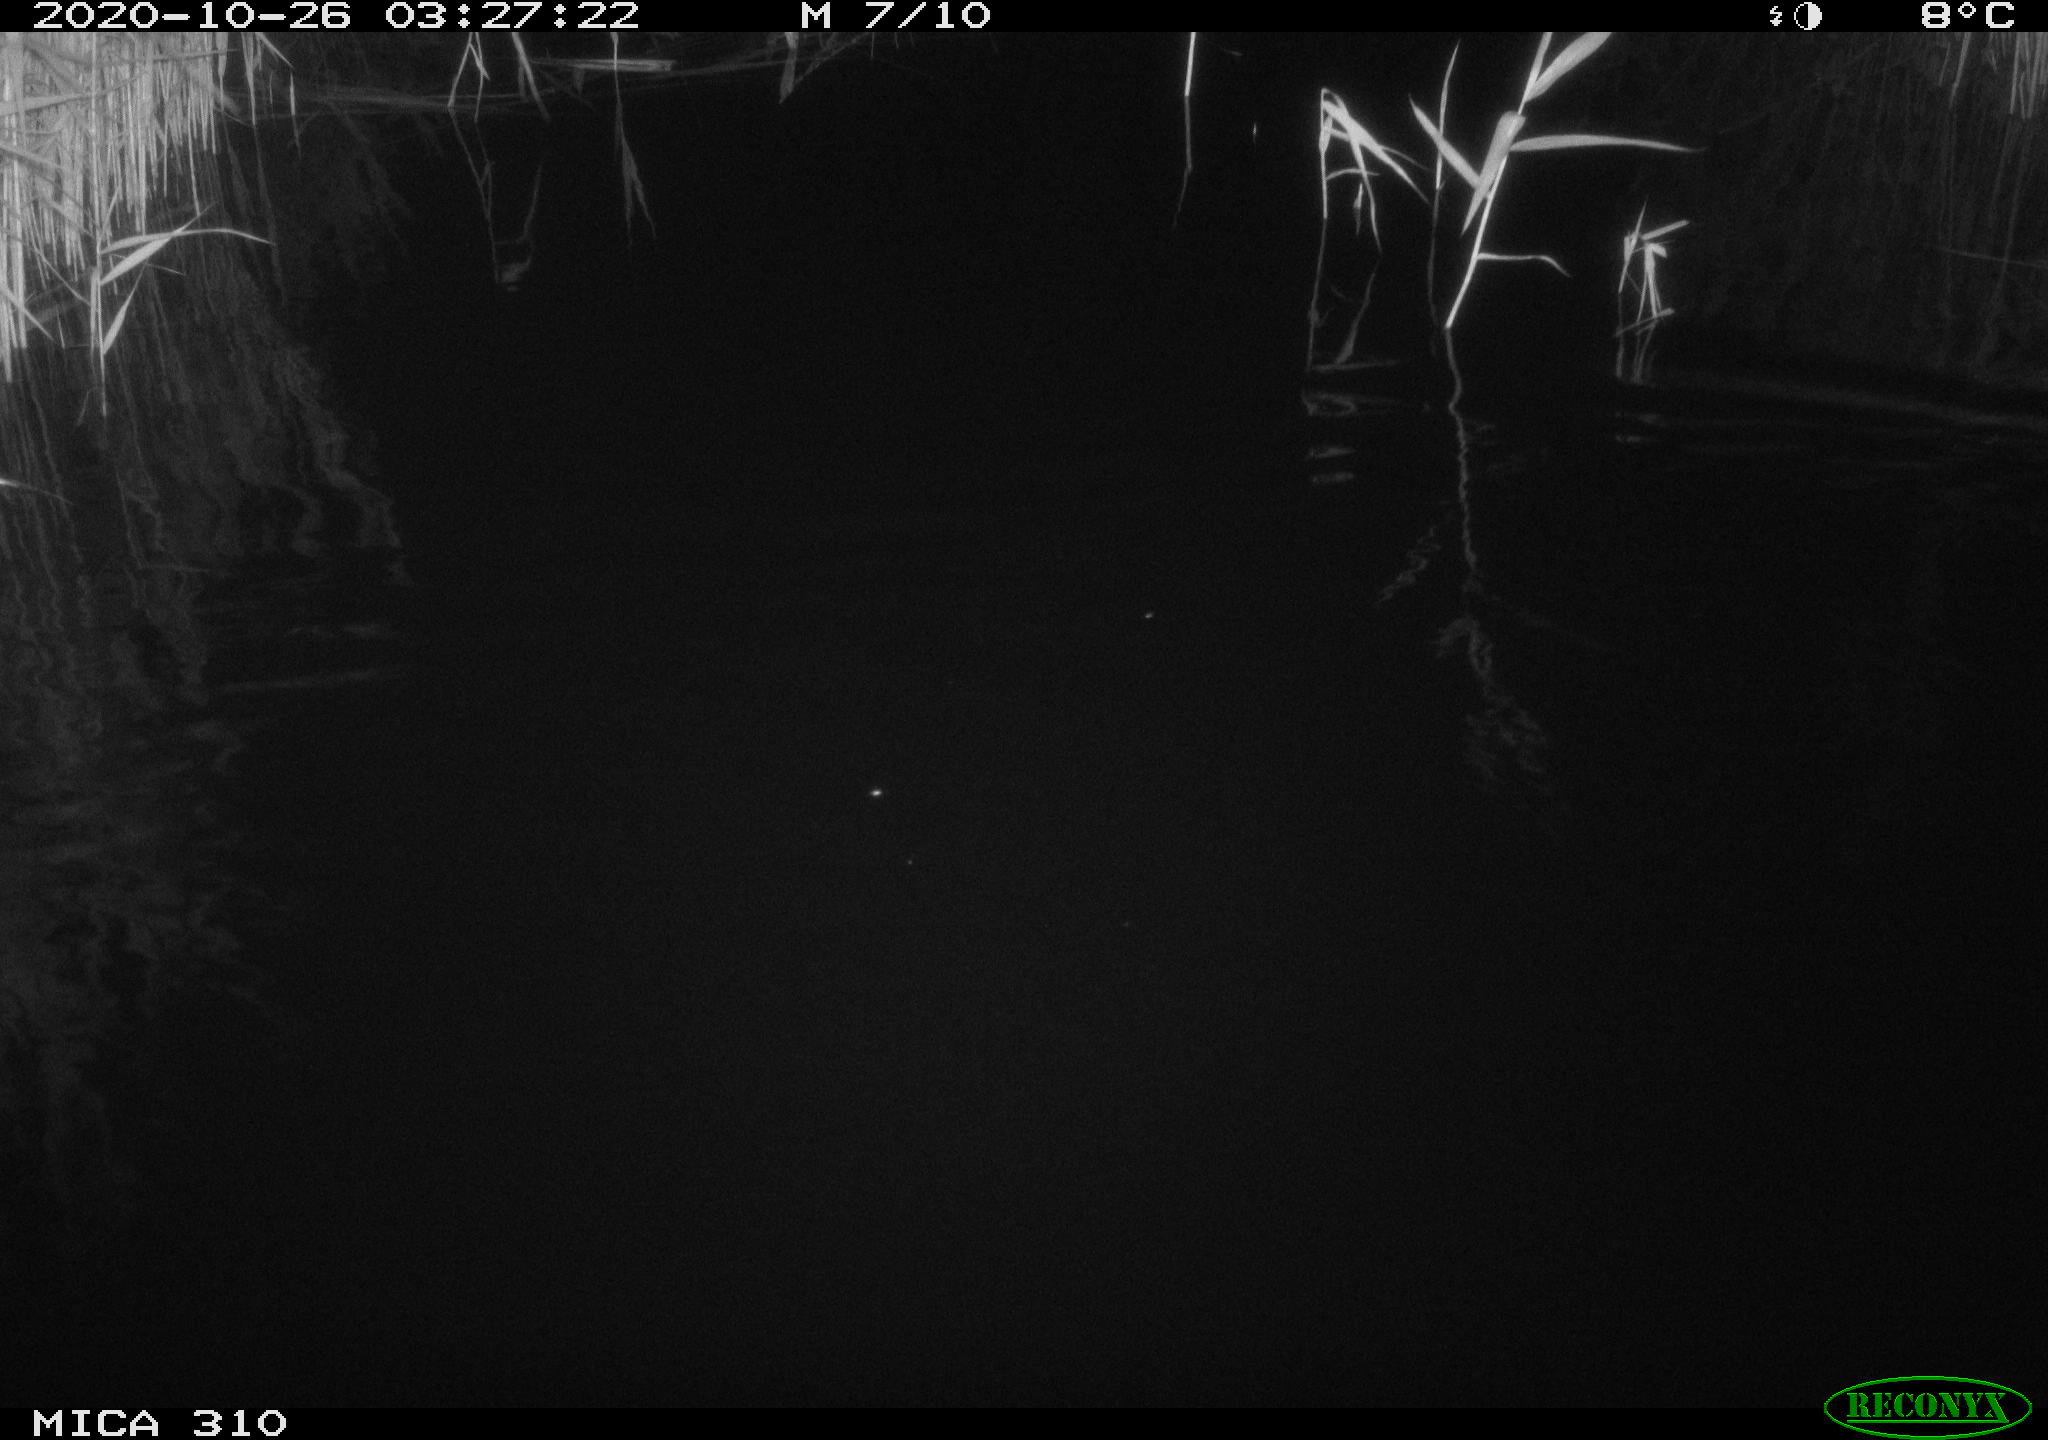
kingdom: Animalia
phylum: Chordata
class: Mammalia
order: Rodentia
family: Muridae
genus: Rattus
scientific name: Rattus norvegicus
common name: Brown rat
